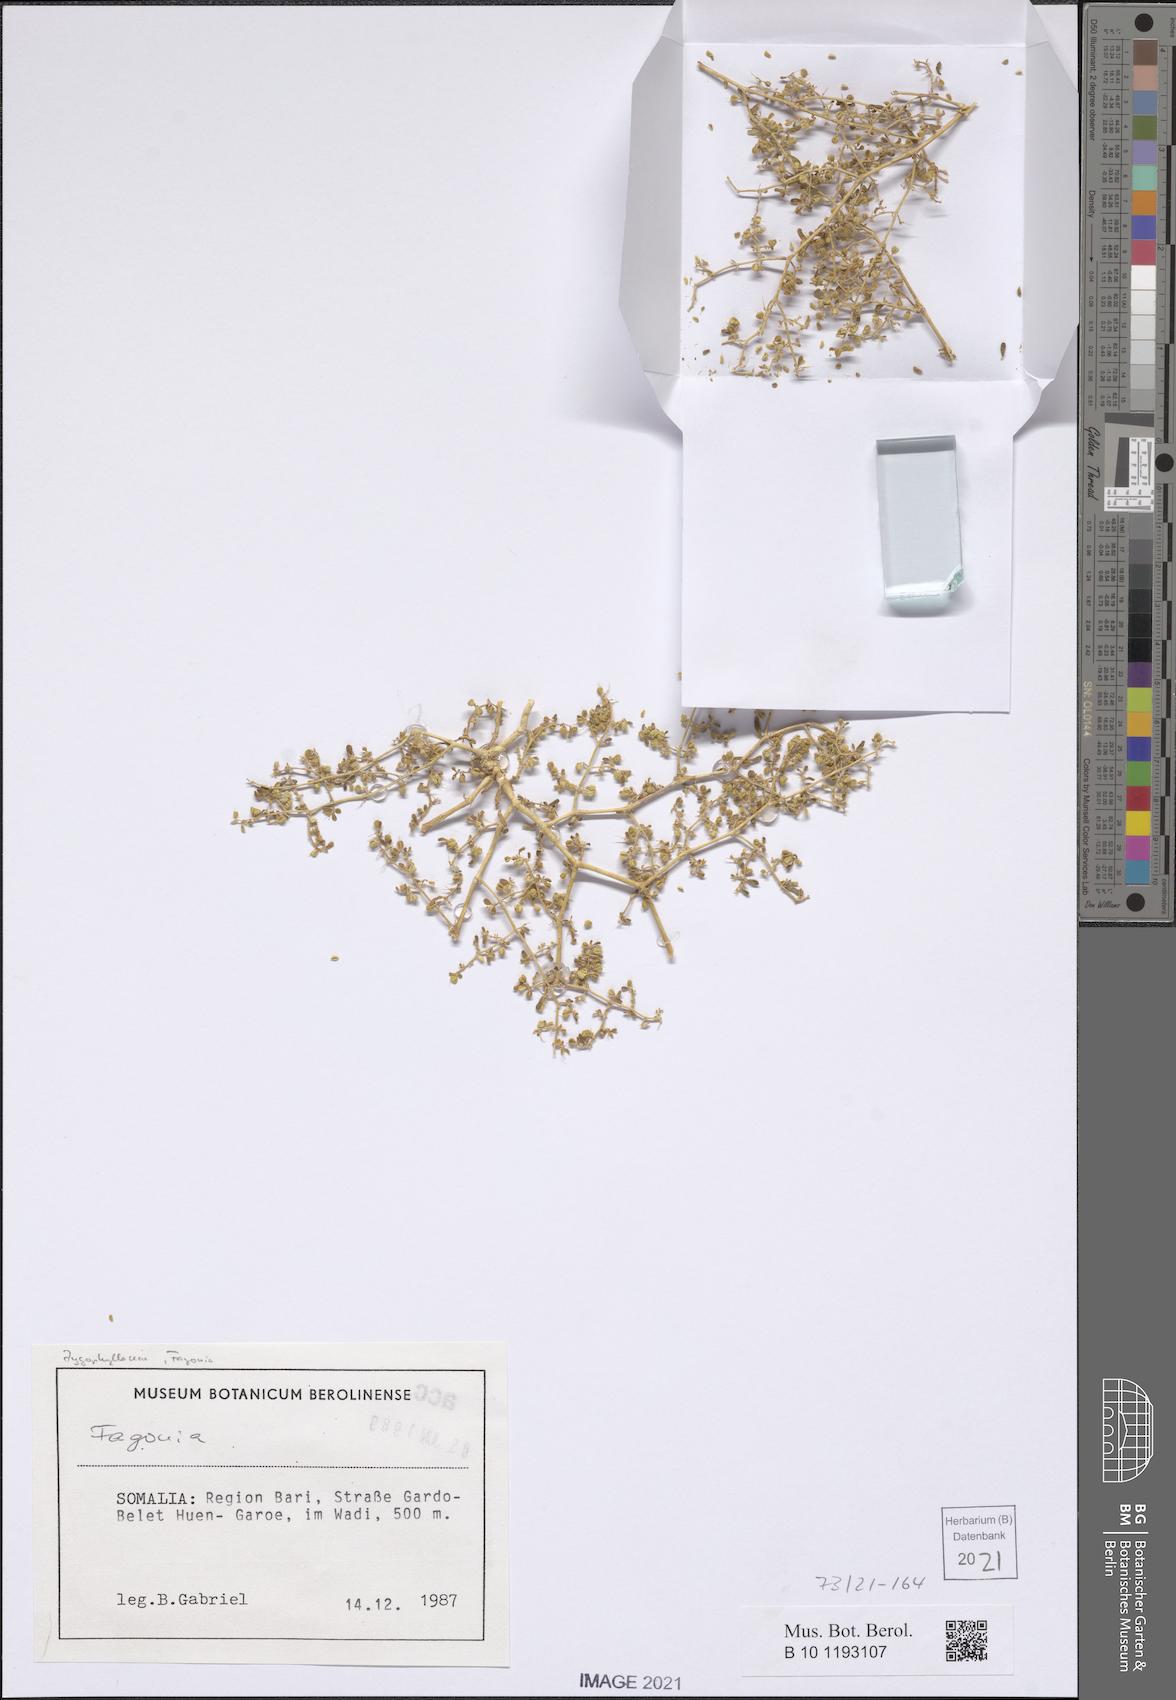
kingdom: Plantae
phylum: Tracheophyta
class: Magnoliopsida
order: Zygophyllales
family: Zygophyllaceae
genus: Fagonia
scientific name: Fagonia
